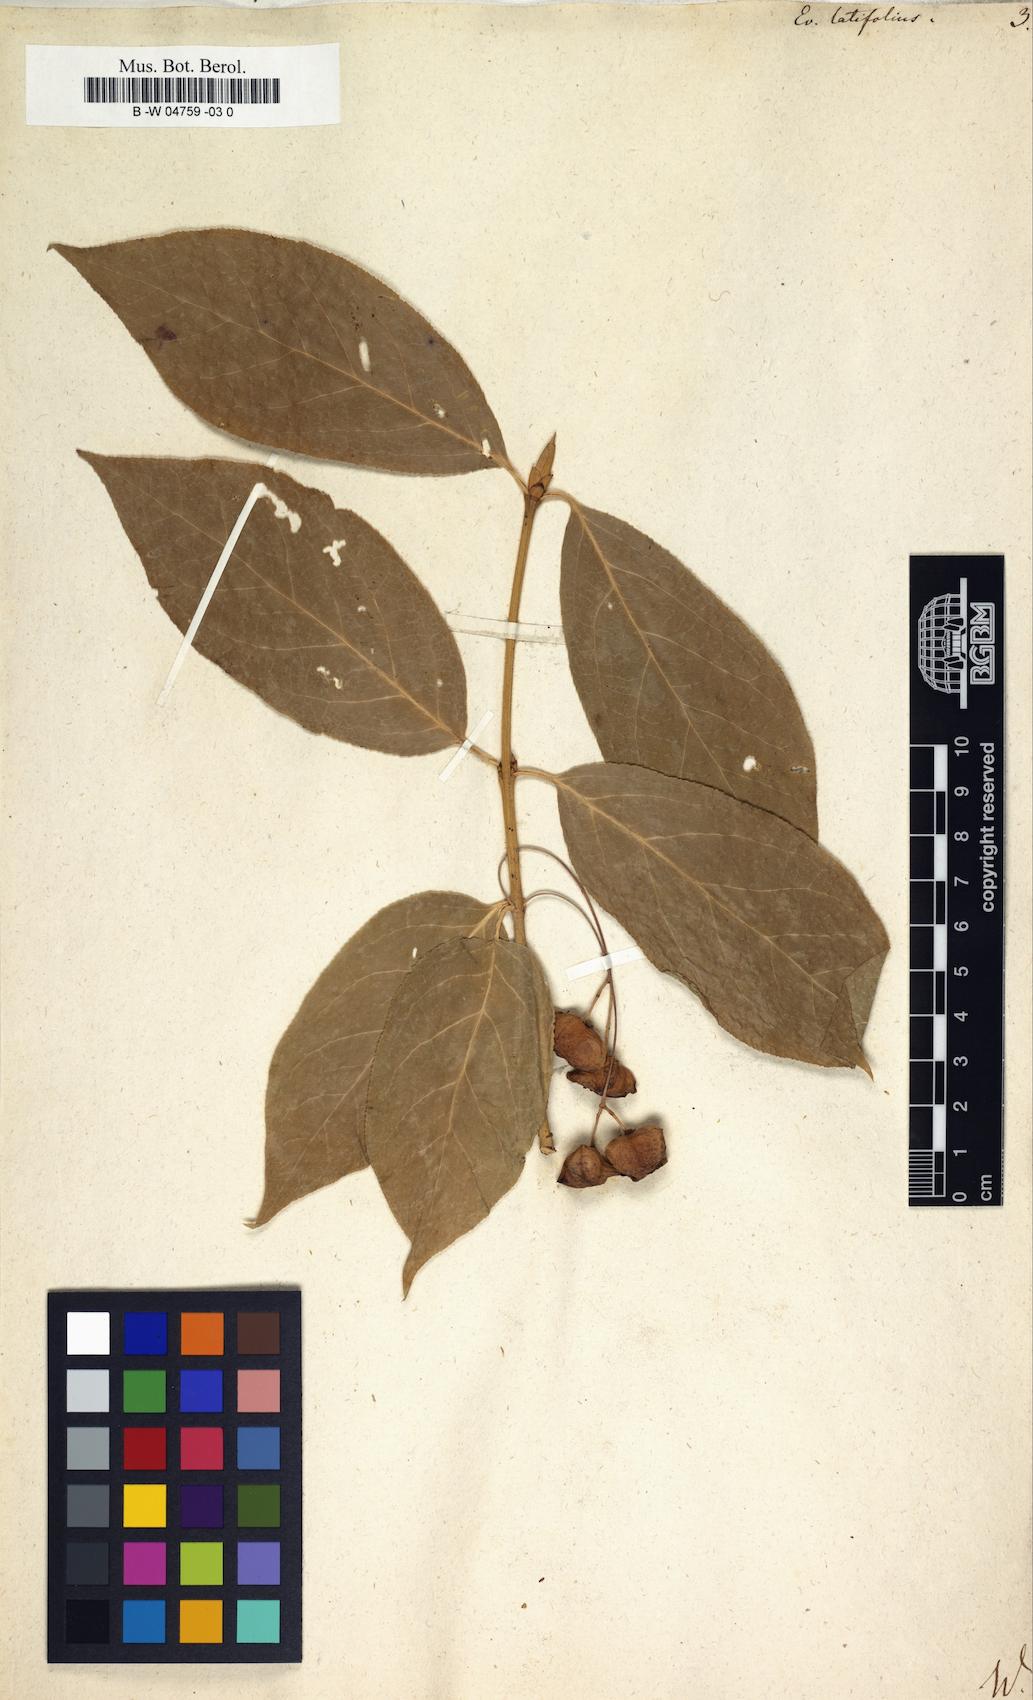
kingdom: Plantae
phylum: Tracheophyta
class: Magnoliopsida
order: Celastrales
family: Celastraceae
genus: Euonymus
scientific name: Euonymus latifolius
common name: Large-leaved spindle
